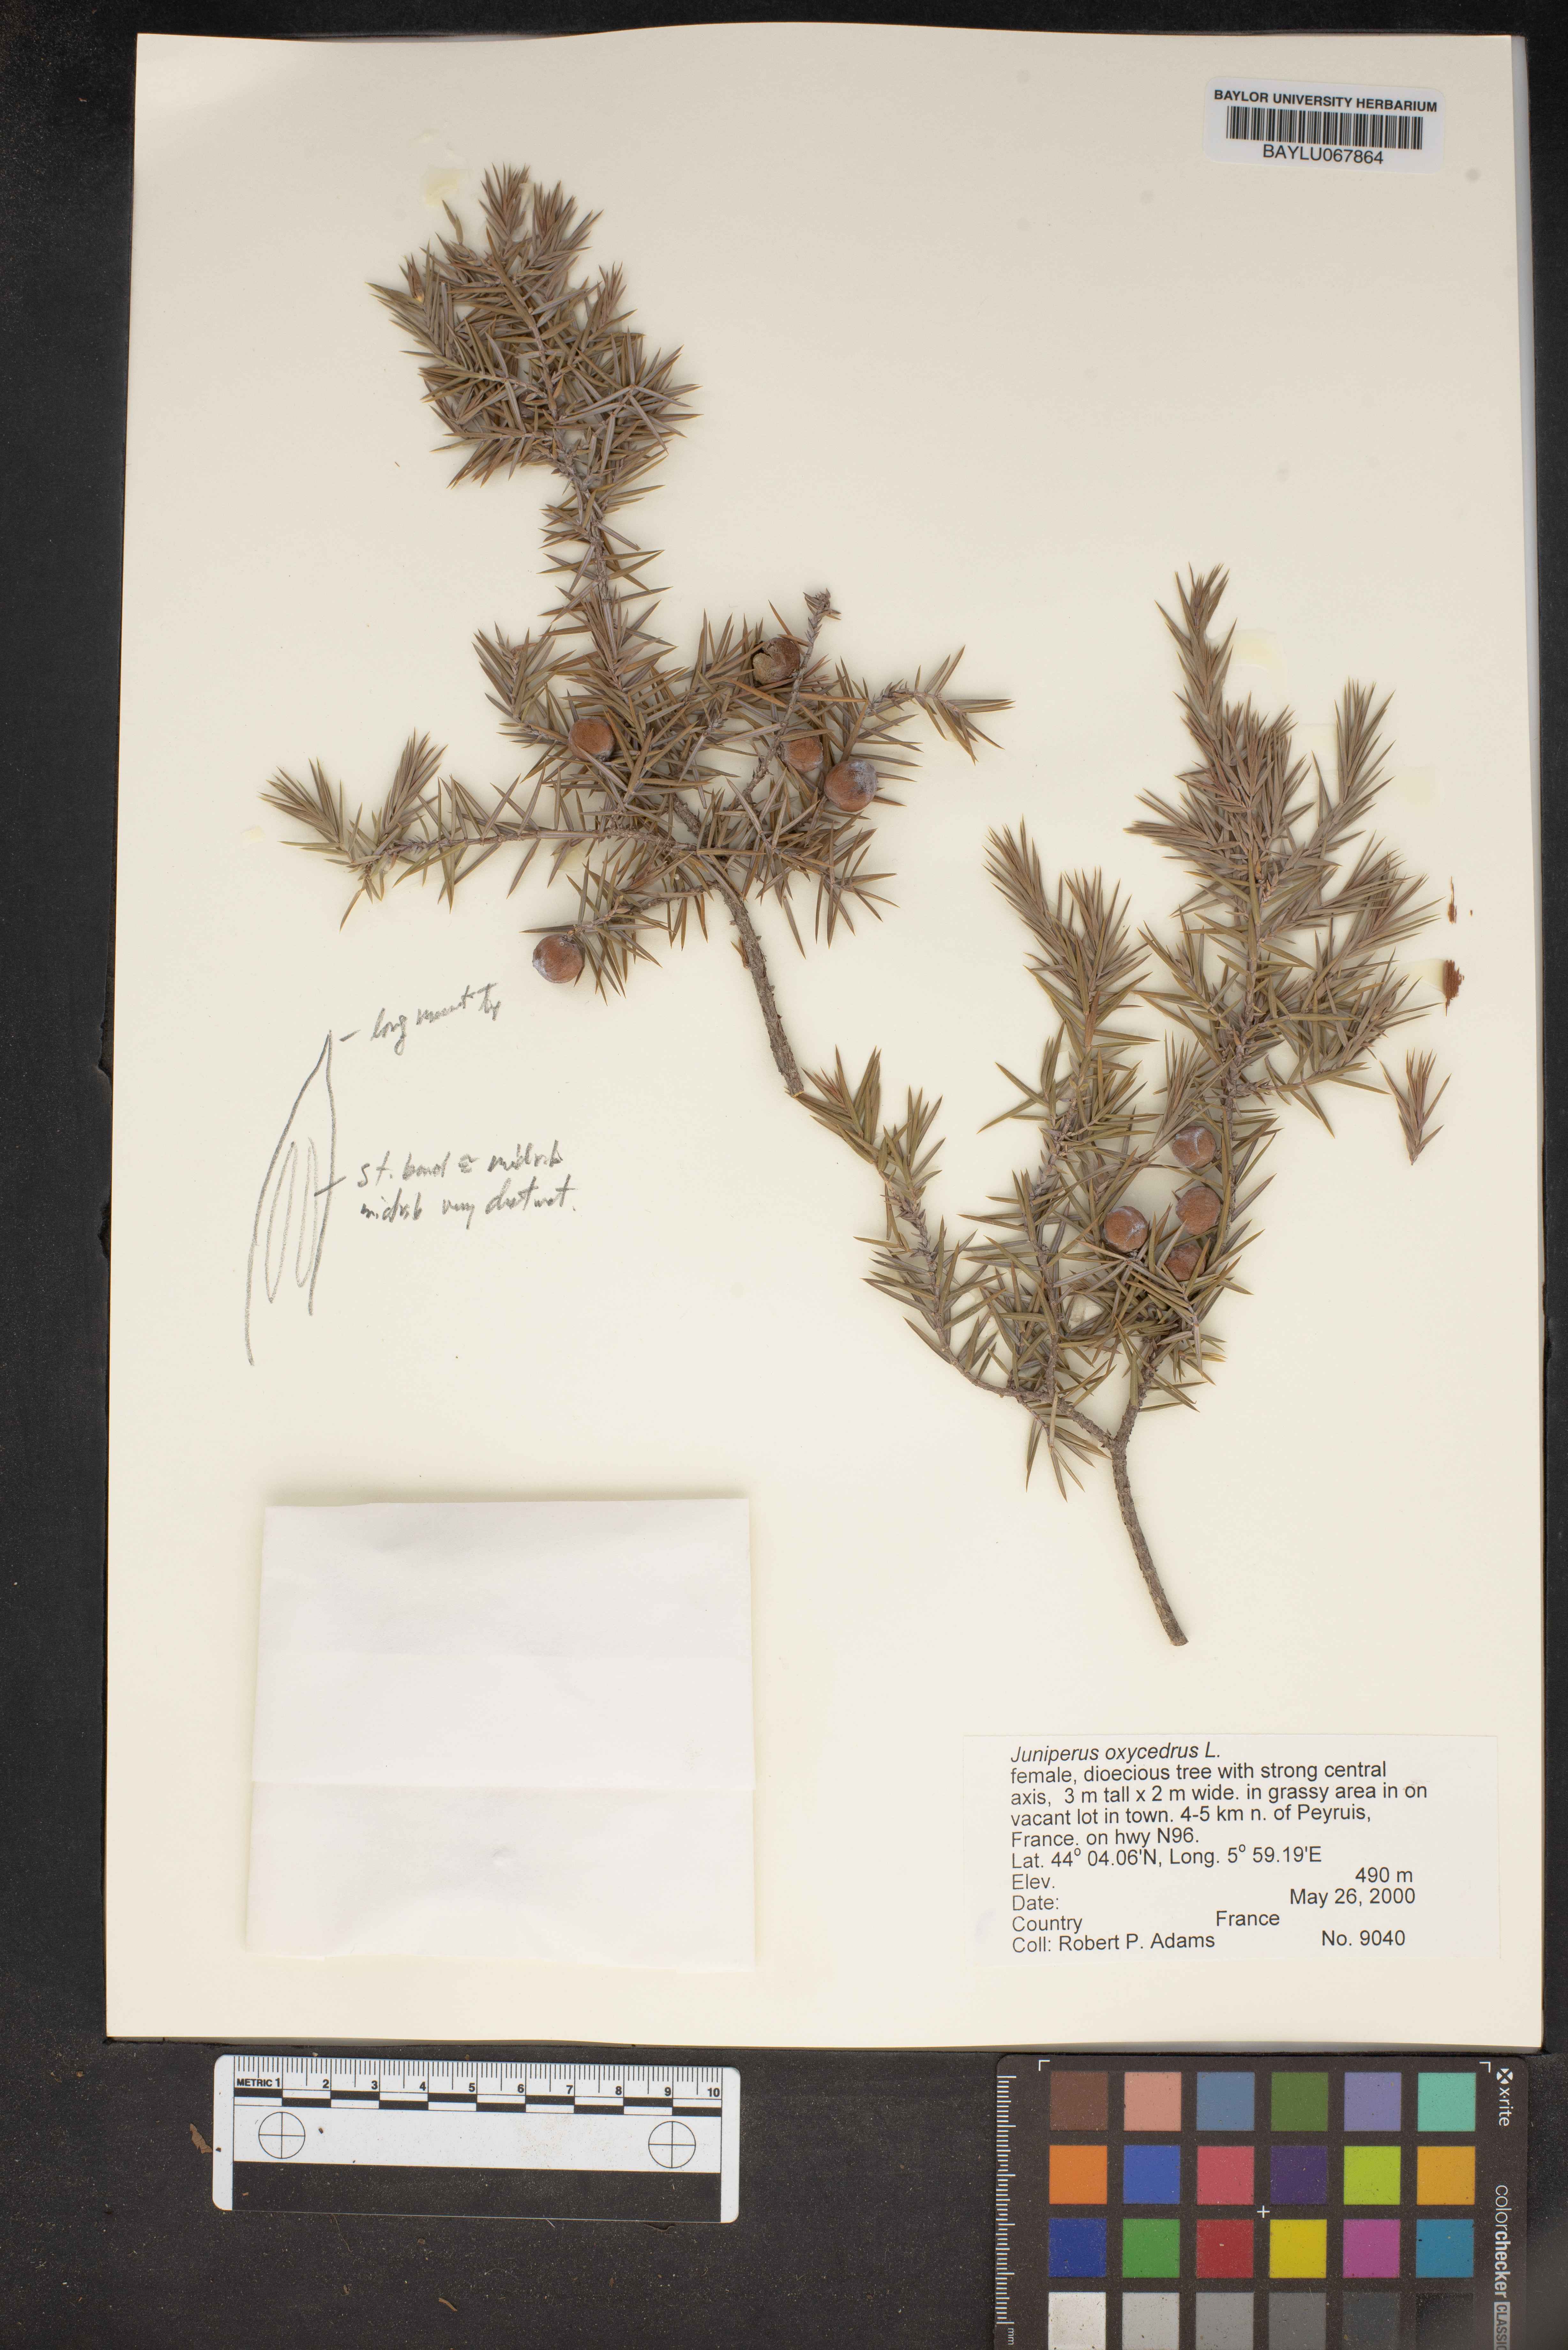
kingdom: Plantae
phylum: Tracheophyta
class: Pinopsida
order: Pinales
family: Cupressaceae
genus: Juniperus
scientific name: Juniperus oxycedrus
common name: Prickly juniper
